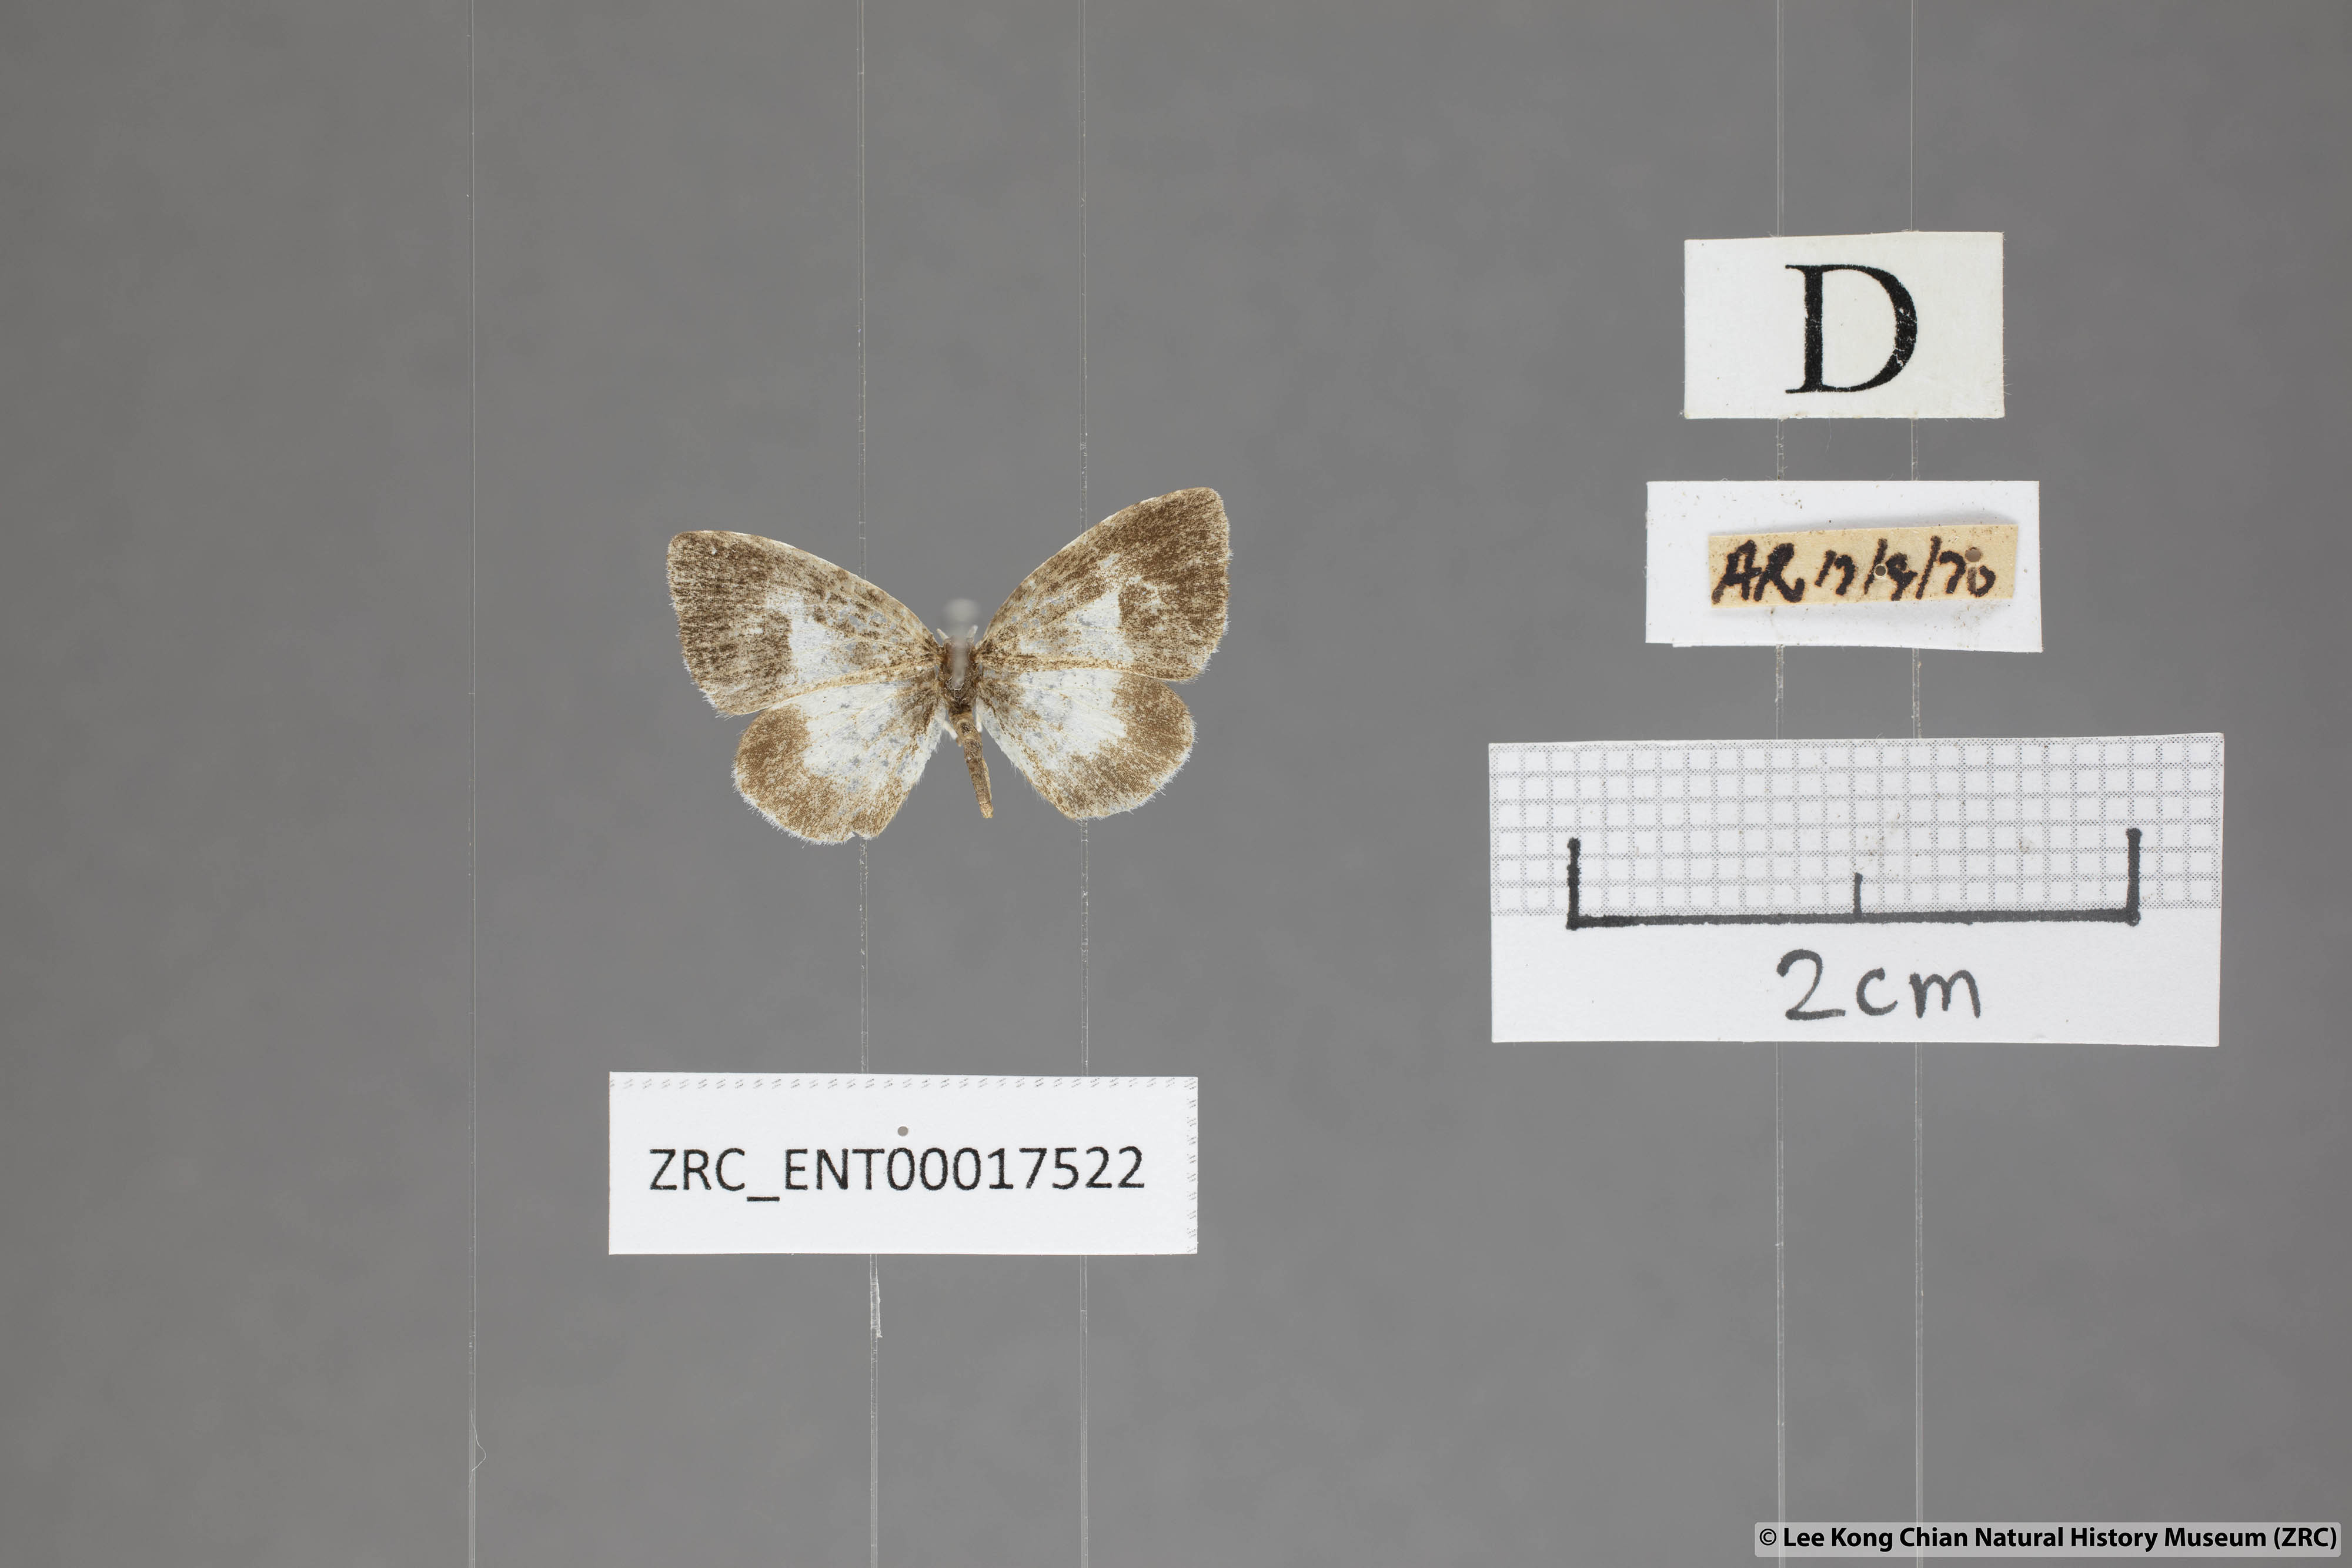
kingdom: Animalia
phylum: Arthropoda
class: Insecta
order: Lepidoptera
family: Lycaenidae
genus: Taraka
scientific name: Taraka mahanetra
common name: Lesser pierrot
